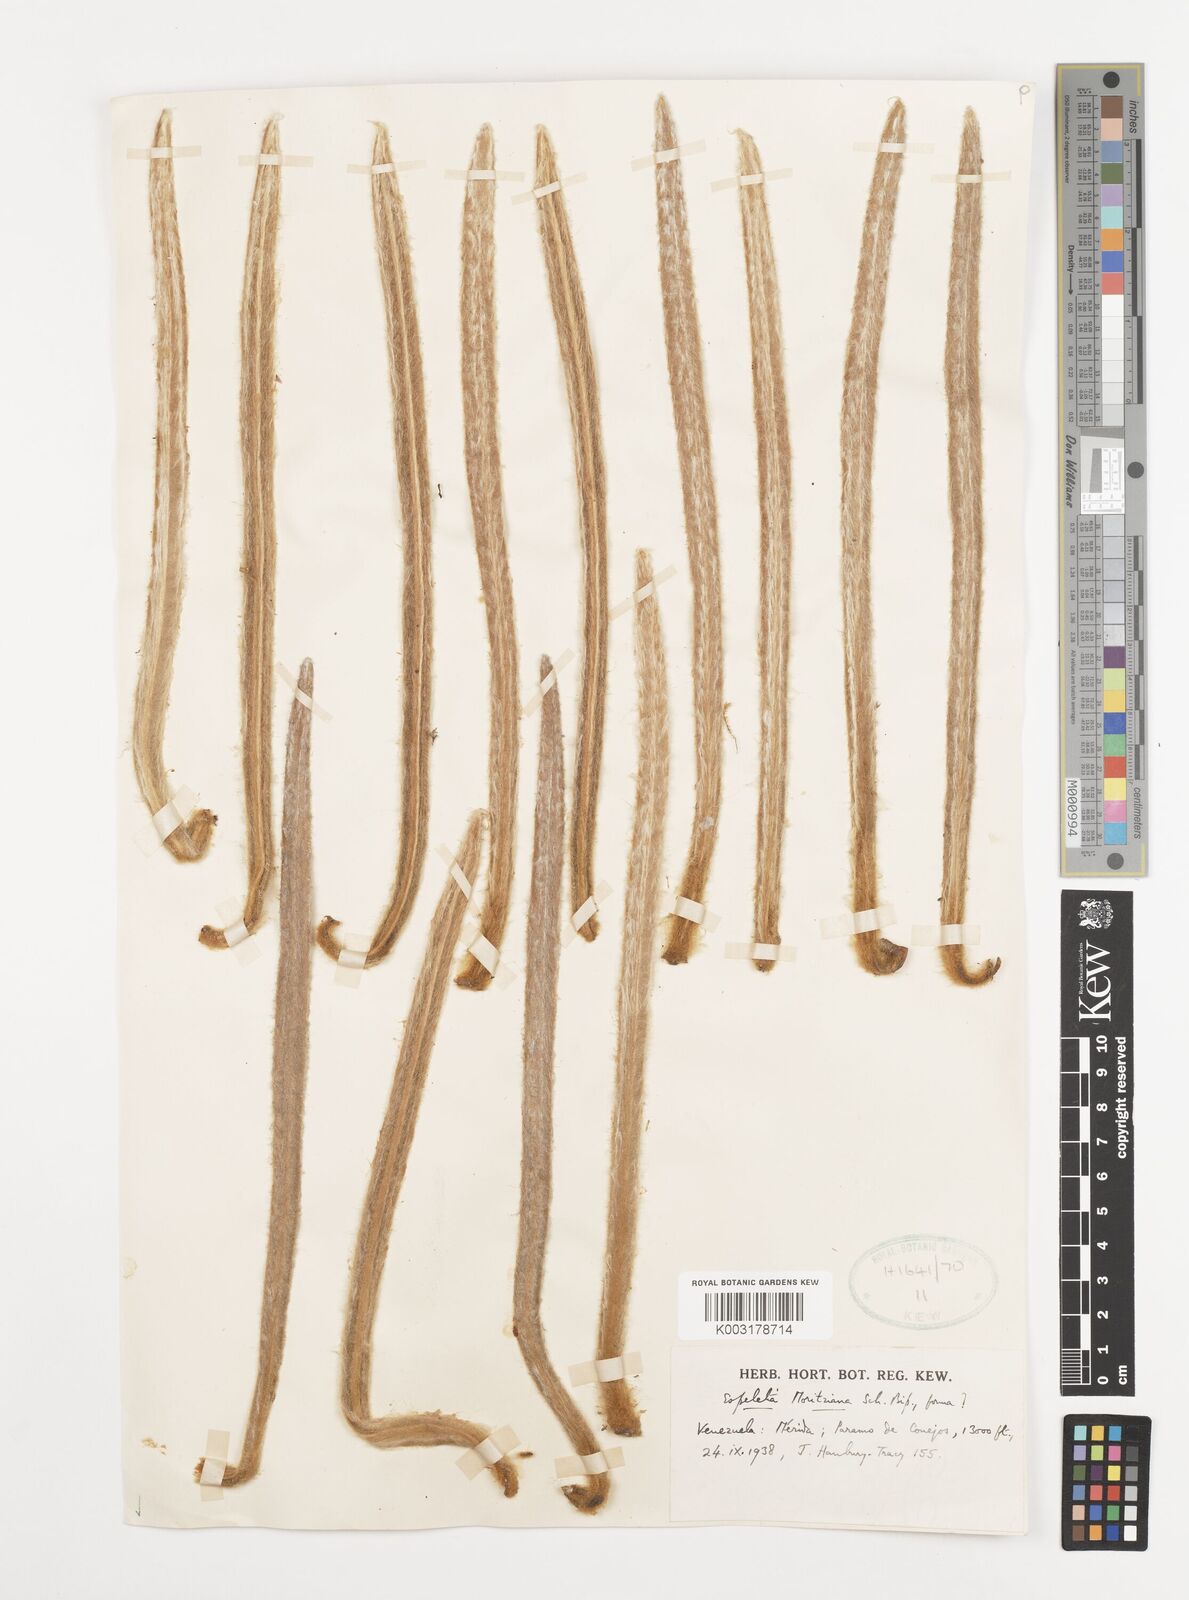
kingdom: Plantae
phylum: Tracheophyta
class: Magnoliopsida
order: Asterales
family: Asteraceae
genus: Espeletia
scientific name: Espeletia moritziana
